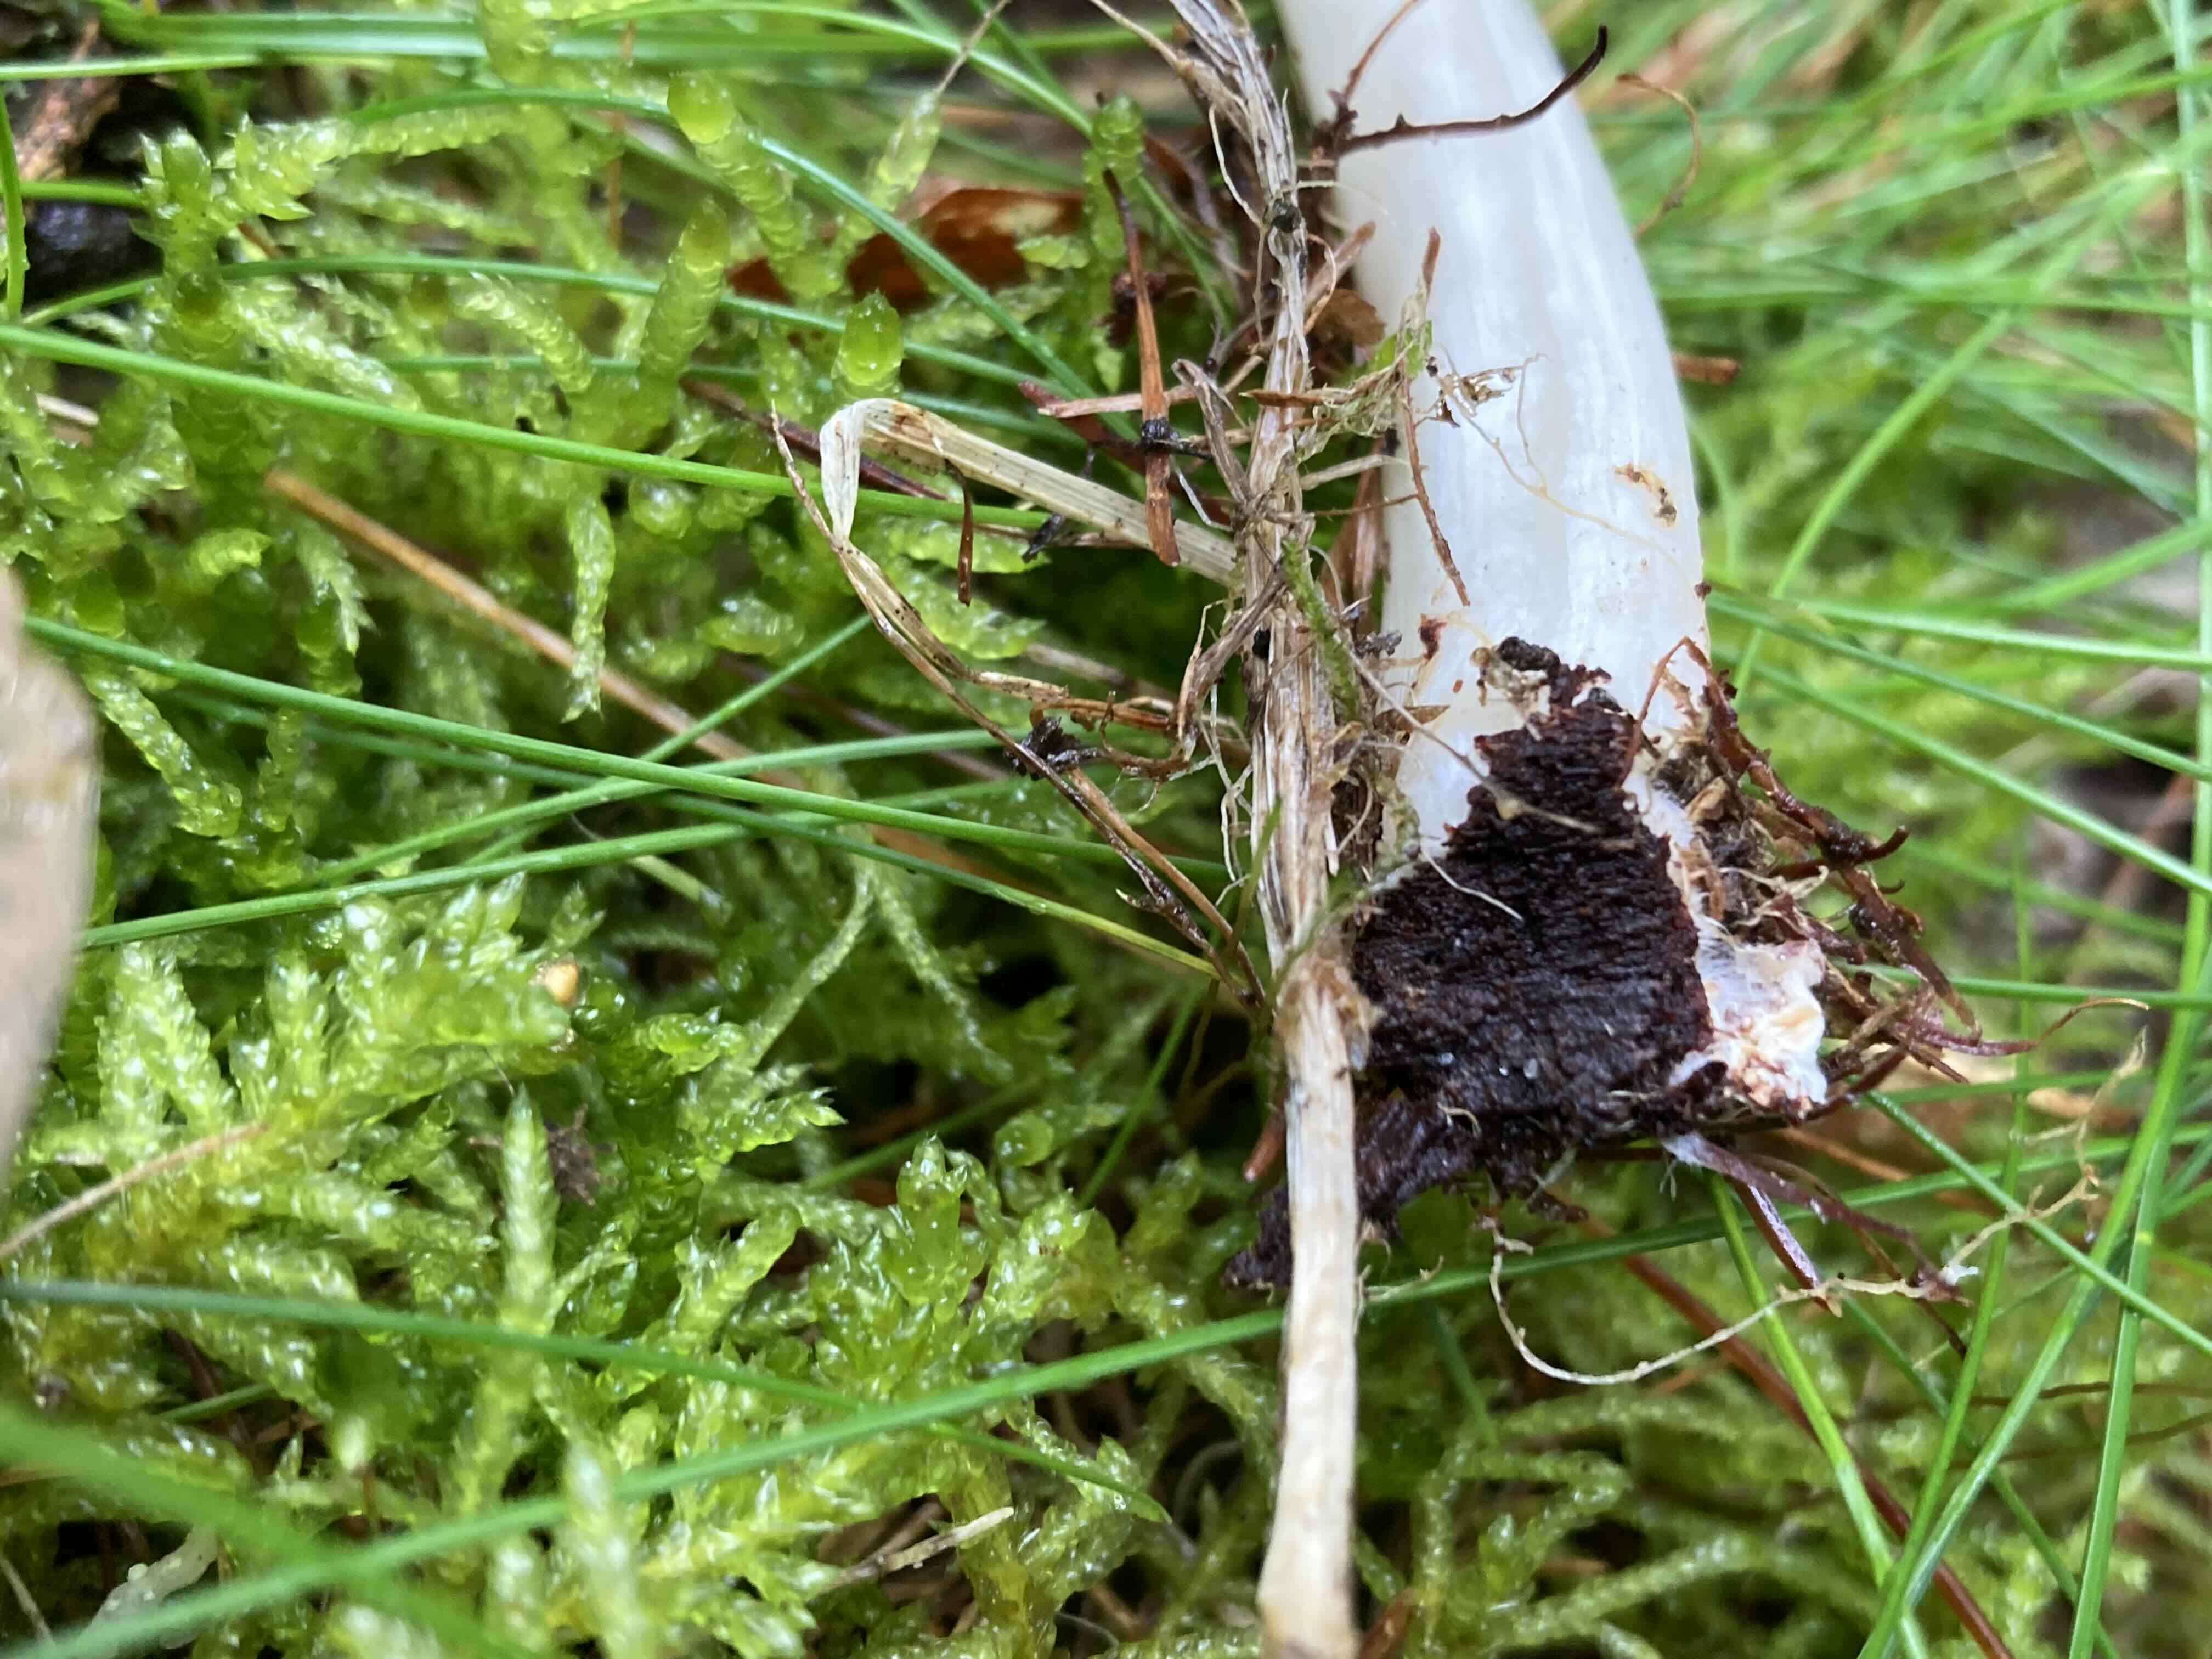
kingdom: Fungi
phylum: Basidiomycota
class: Agaricomycetes
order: Agaricales
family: Tricholomataceae
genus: Megacollybia
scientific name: Megacollybia platyphylla
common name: bredbladet væbnerhat
